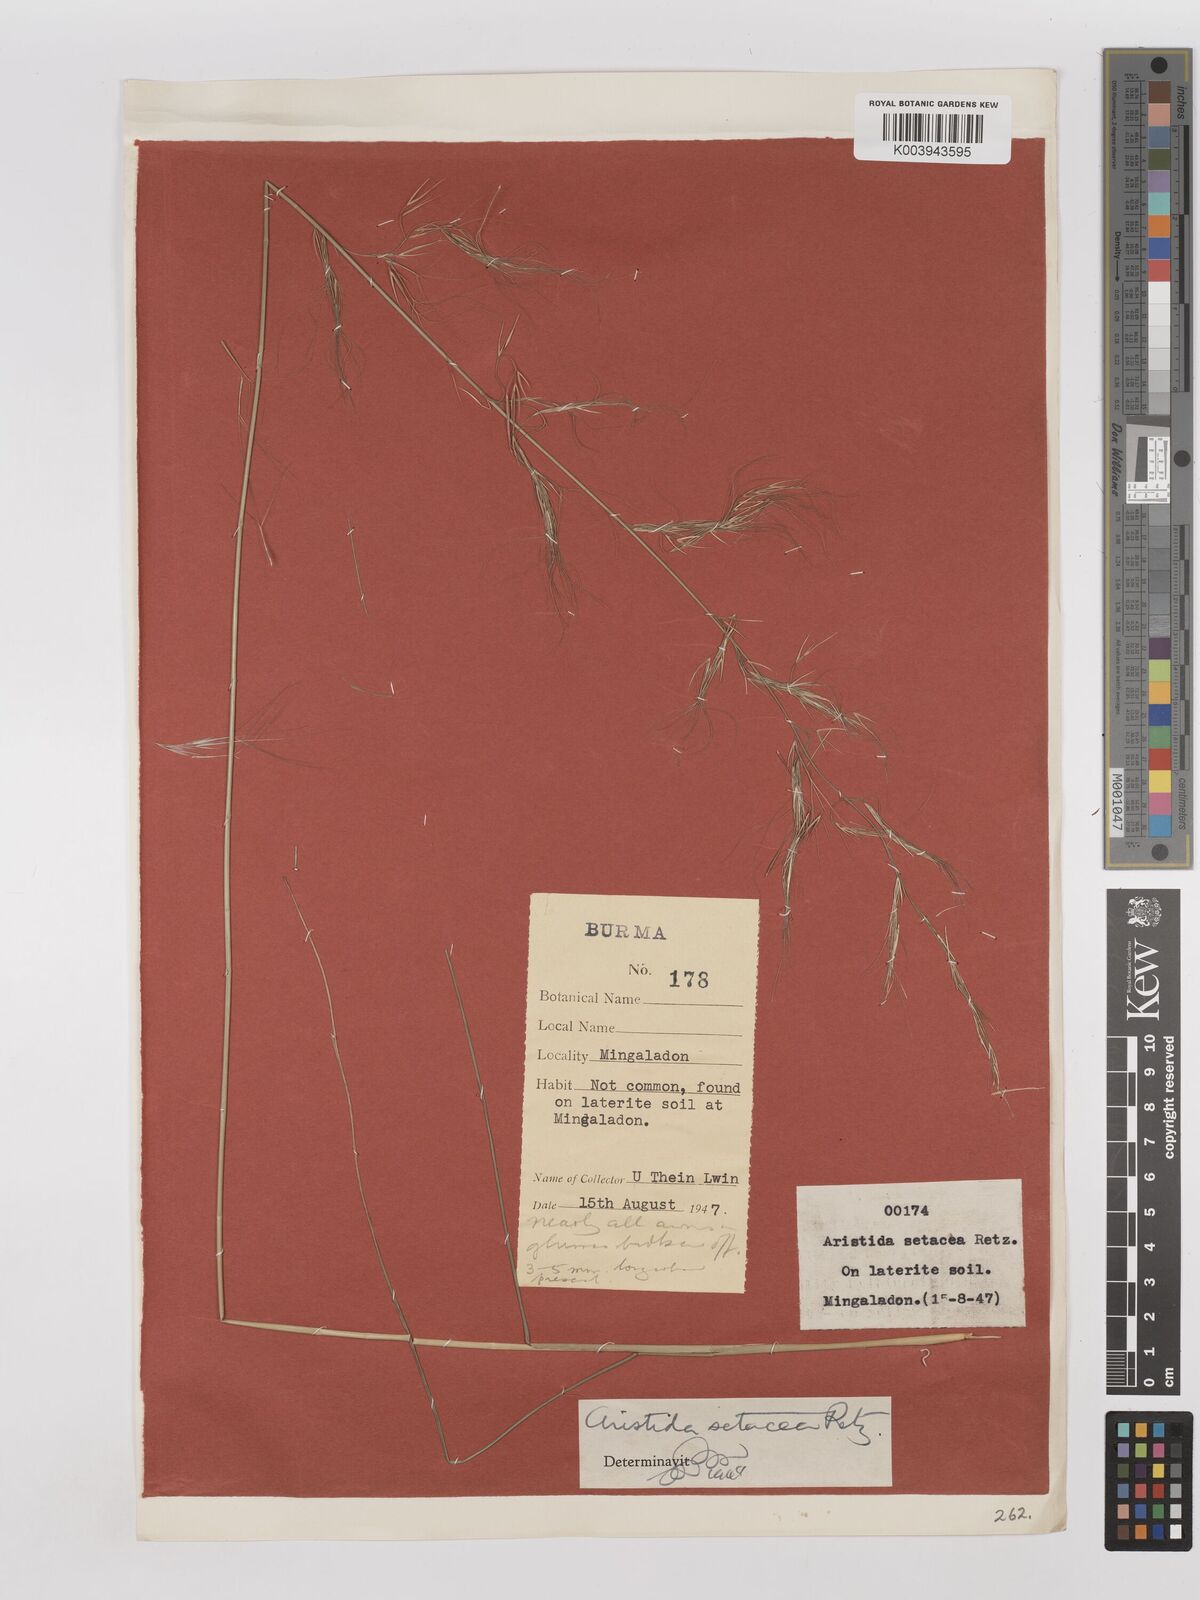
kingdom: Plantae
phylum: Tracheophyta
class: Liliopsida
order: Poales
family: Poaceae
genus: Aristida
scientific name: Aristida setacea
